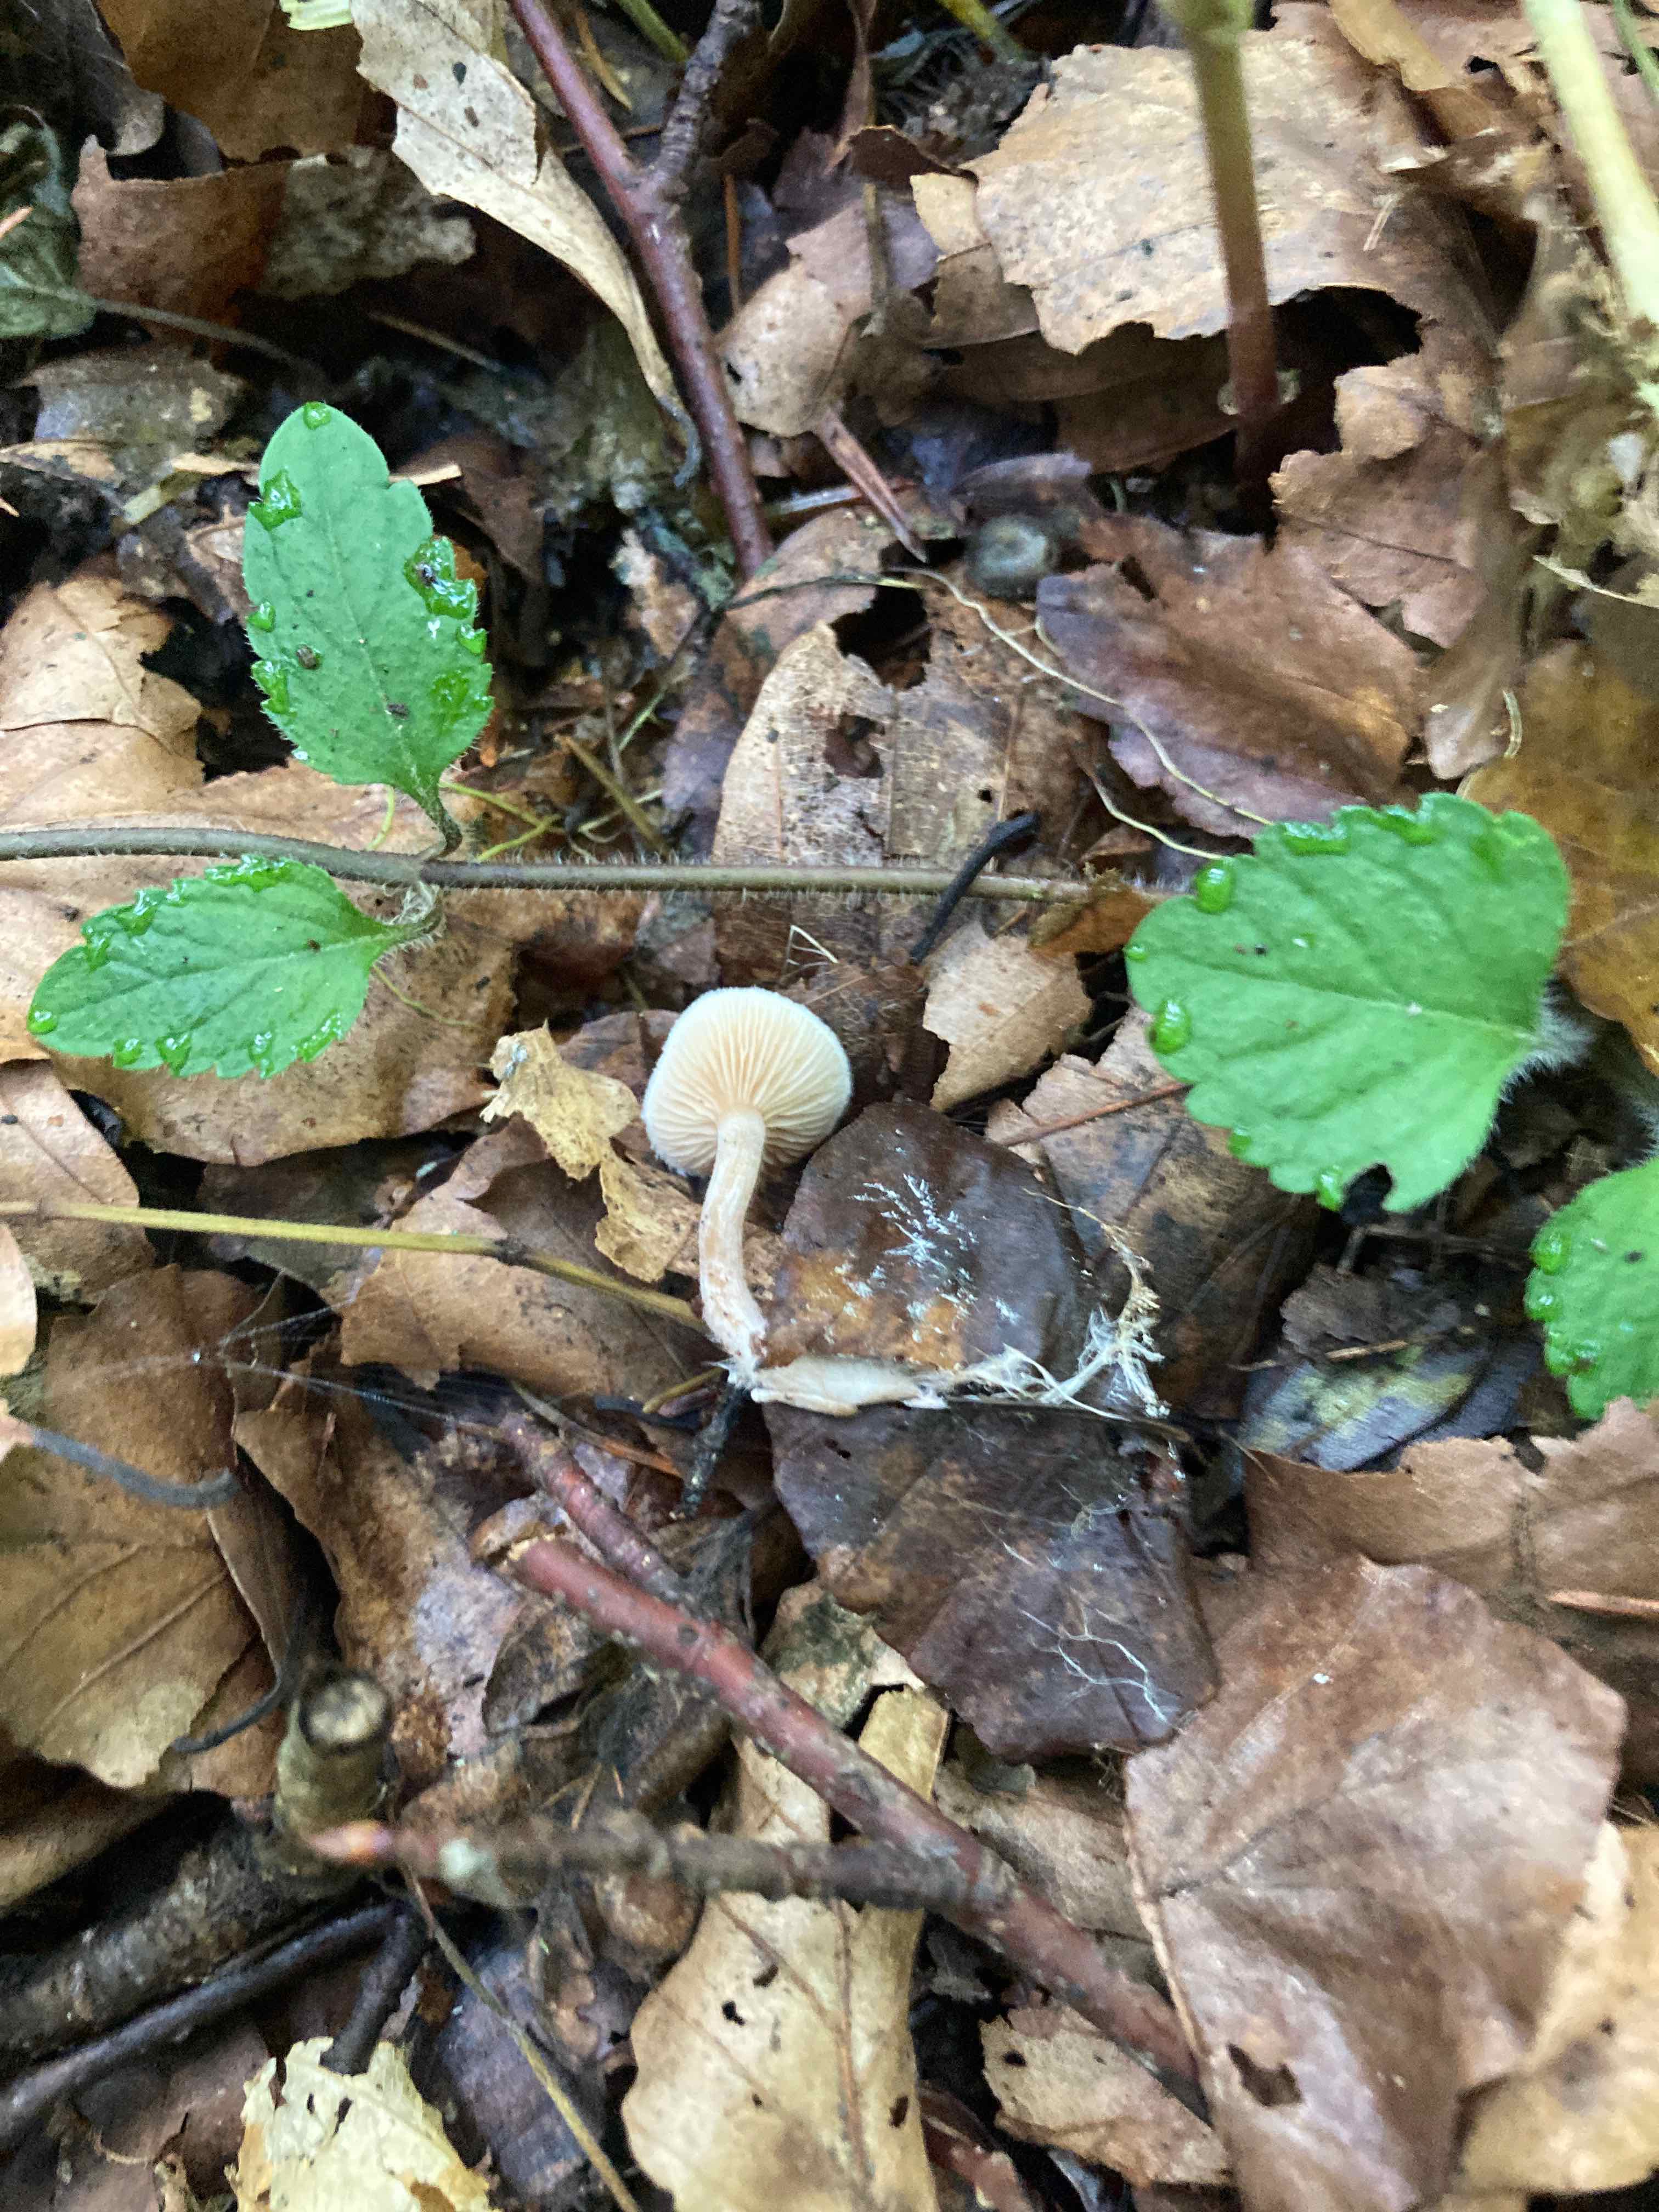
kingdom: Fungi
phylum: Basidiomycota
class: Agaricomycetes
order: Agaricales
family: Tricholomataceae
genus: Ripartites
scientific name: Ripartites
